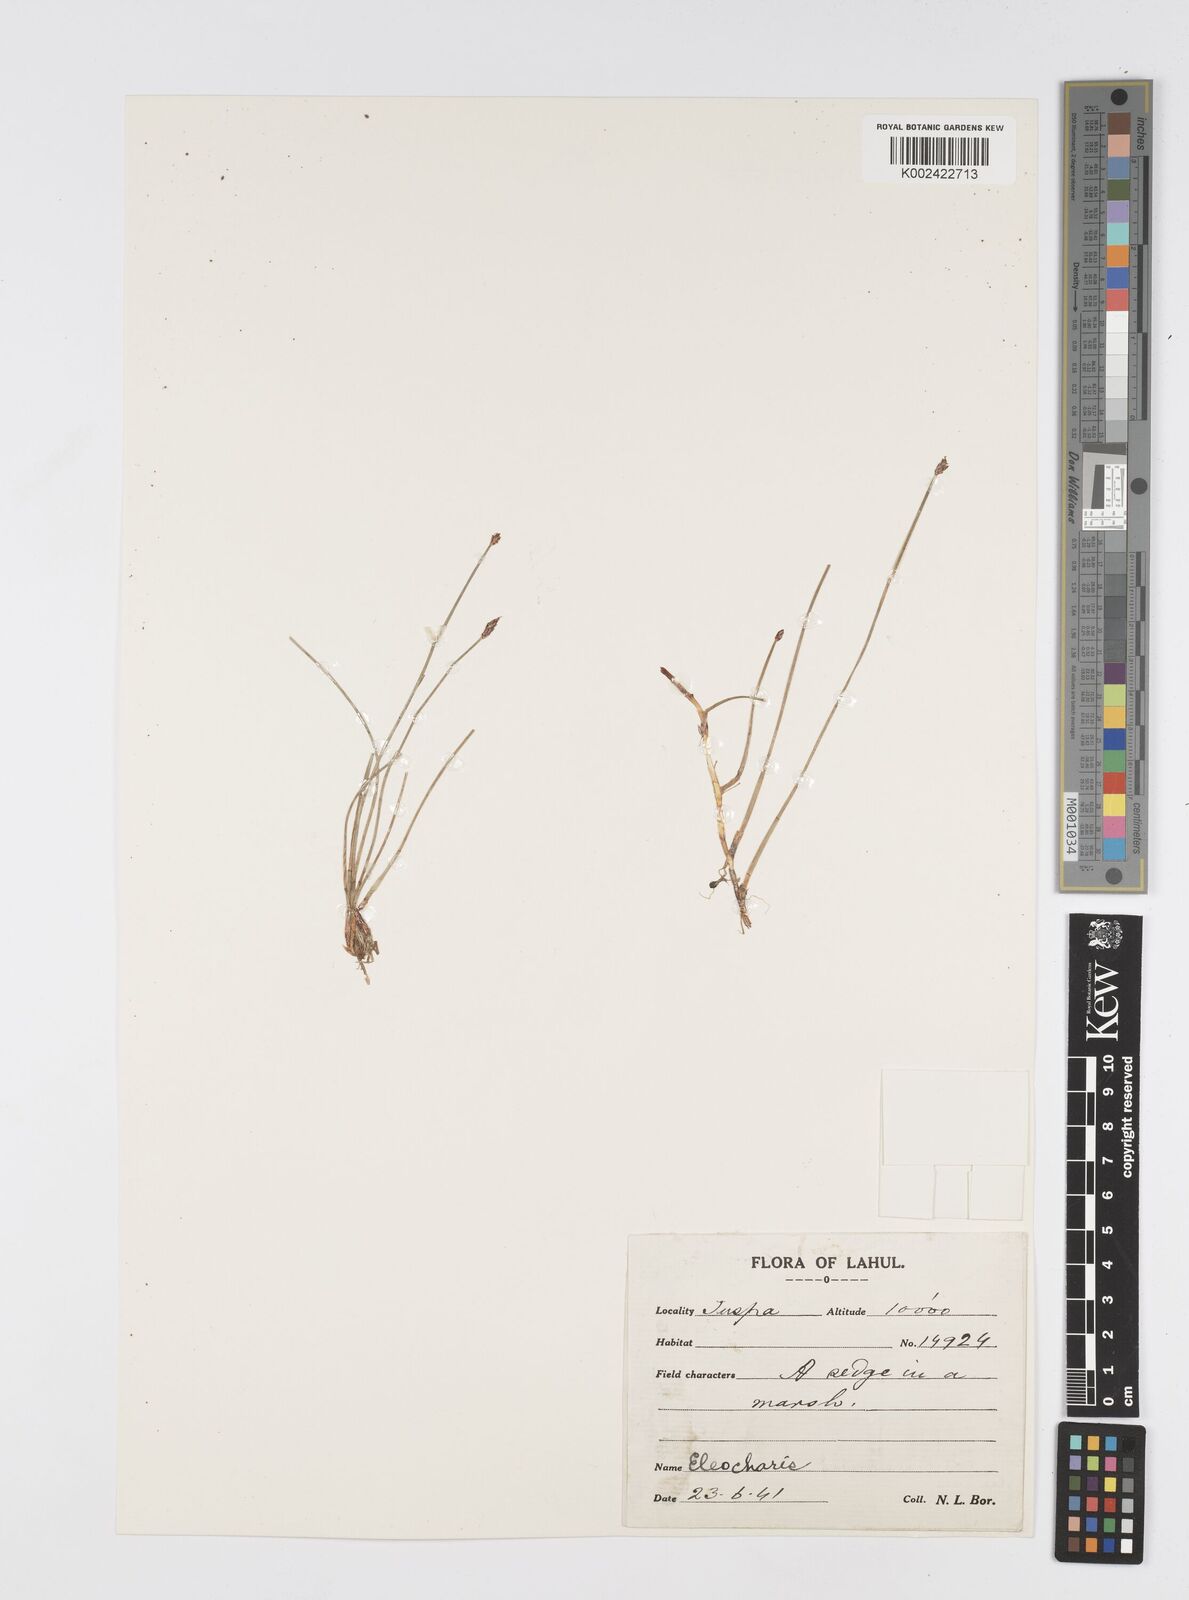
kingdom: Plantae
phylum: Tracheophyta
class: Liliopsida
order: Poales
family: Cyperaceae
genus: Eleocharis
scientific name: Eleocharis
